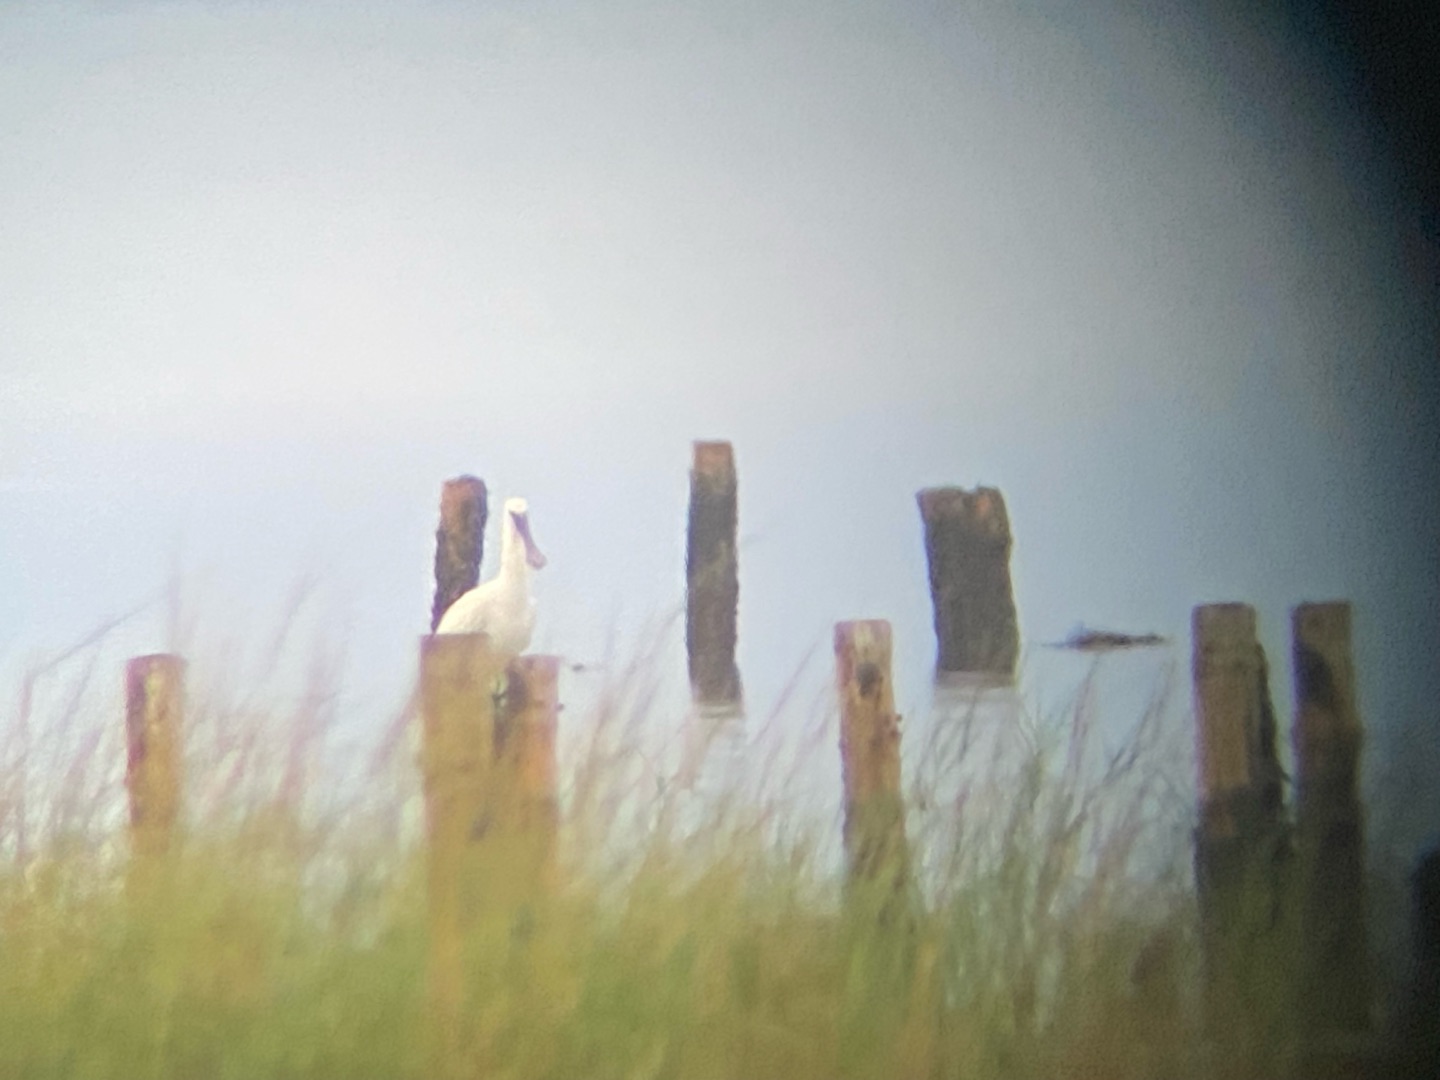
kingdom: Animalia
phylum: Chordata
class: Aves
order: Pelecaniformes
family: Threskiornithidae
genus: Platalea
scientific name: Platalea leucorodia
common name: Skestork
